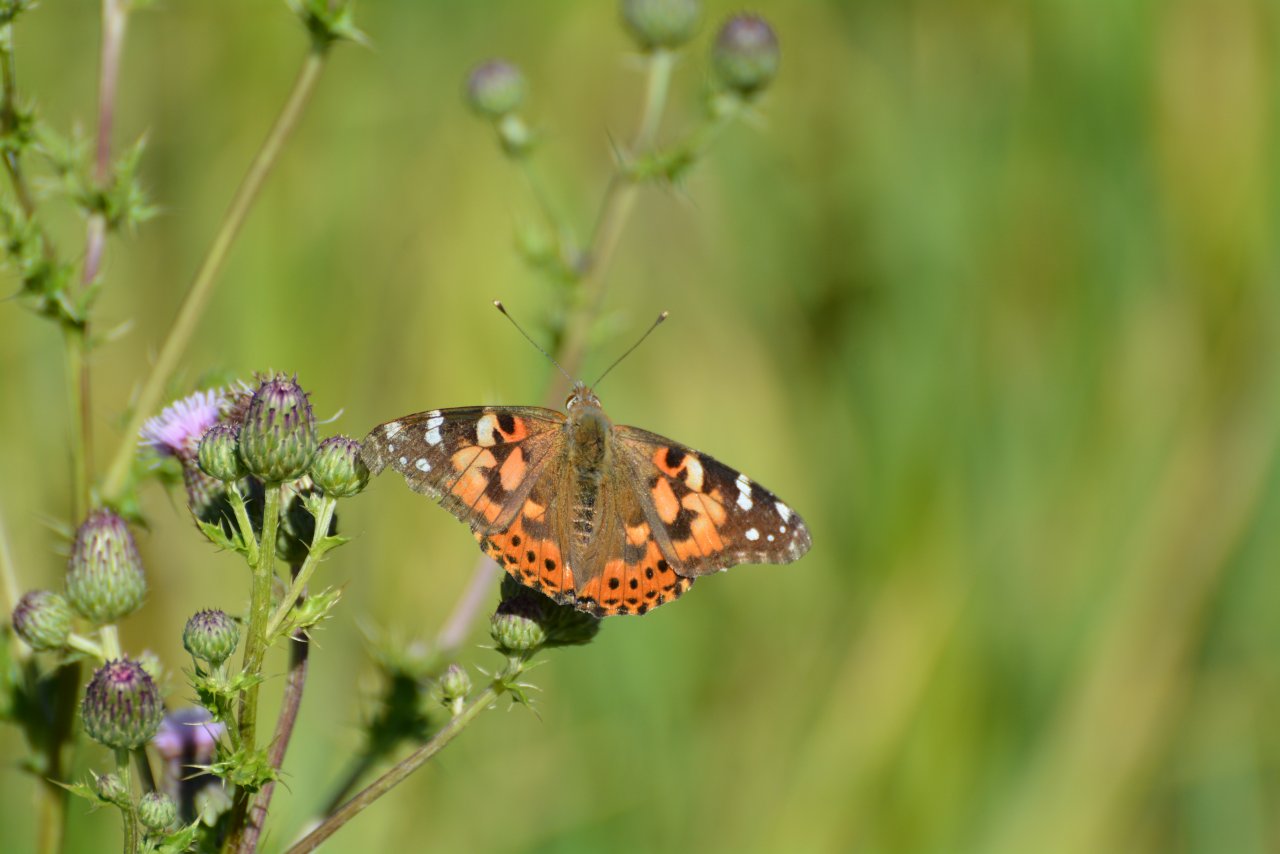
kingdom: Animalia
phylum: Arthropoda
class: Insecta
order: Lepidoptera
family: Nymphalidae
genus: Vanessa
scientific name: Vanessa cardui
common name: Painted Lady
